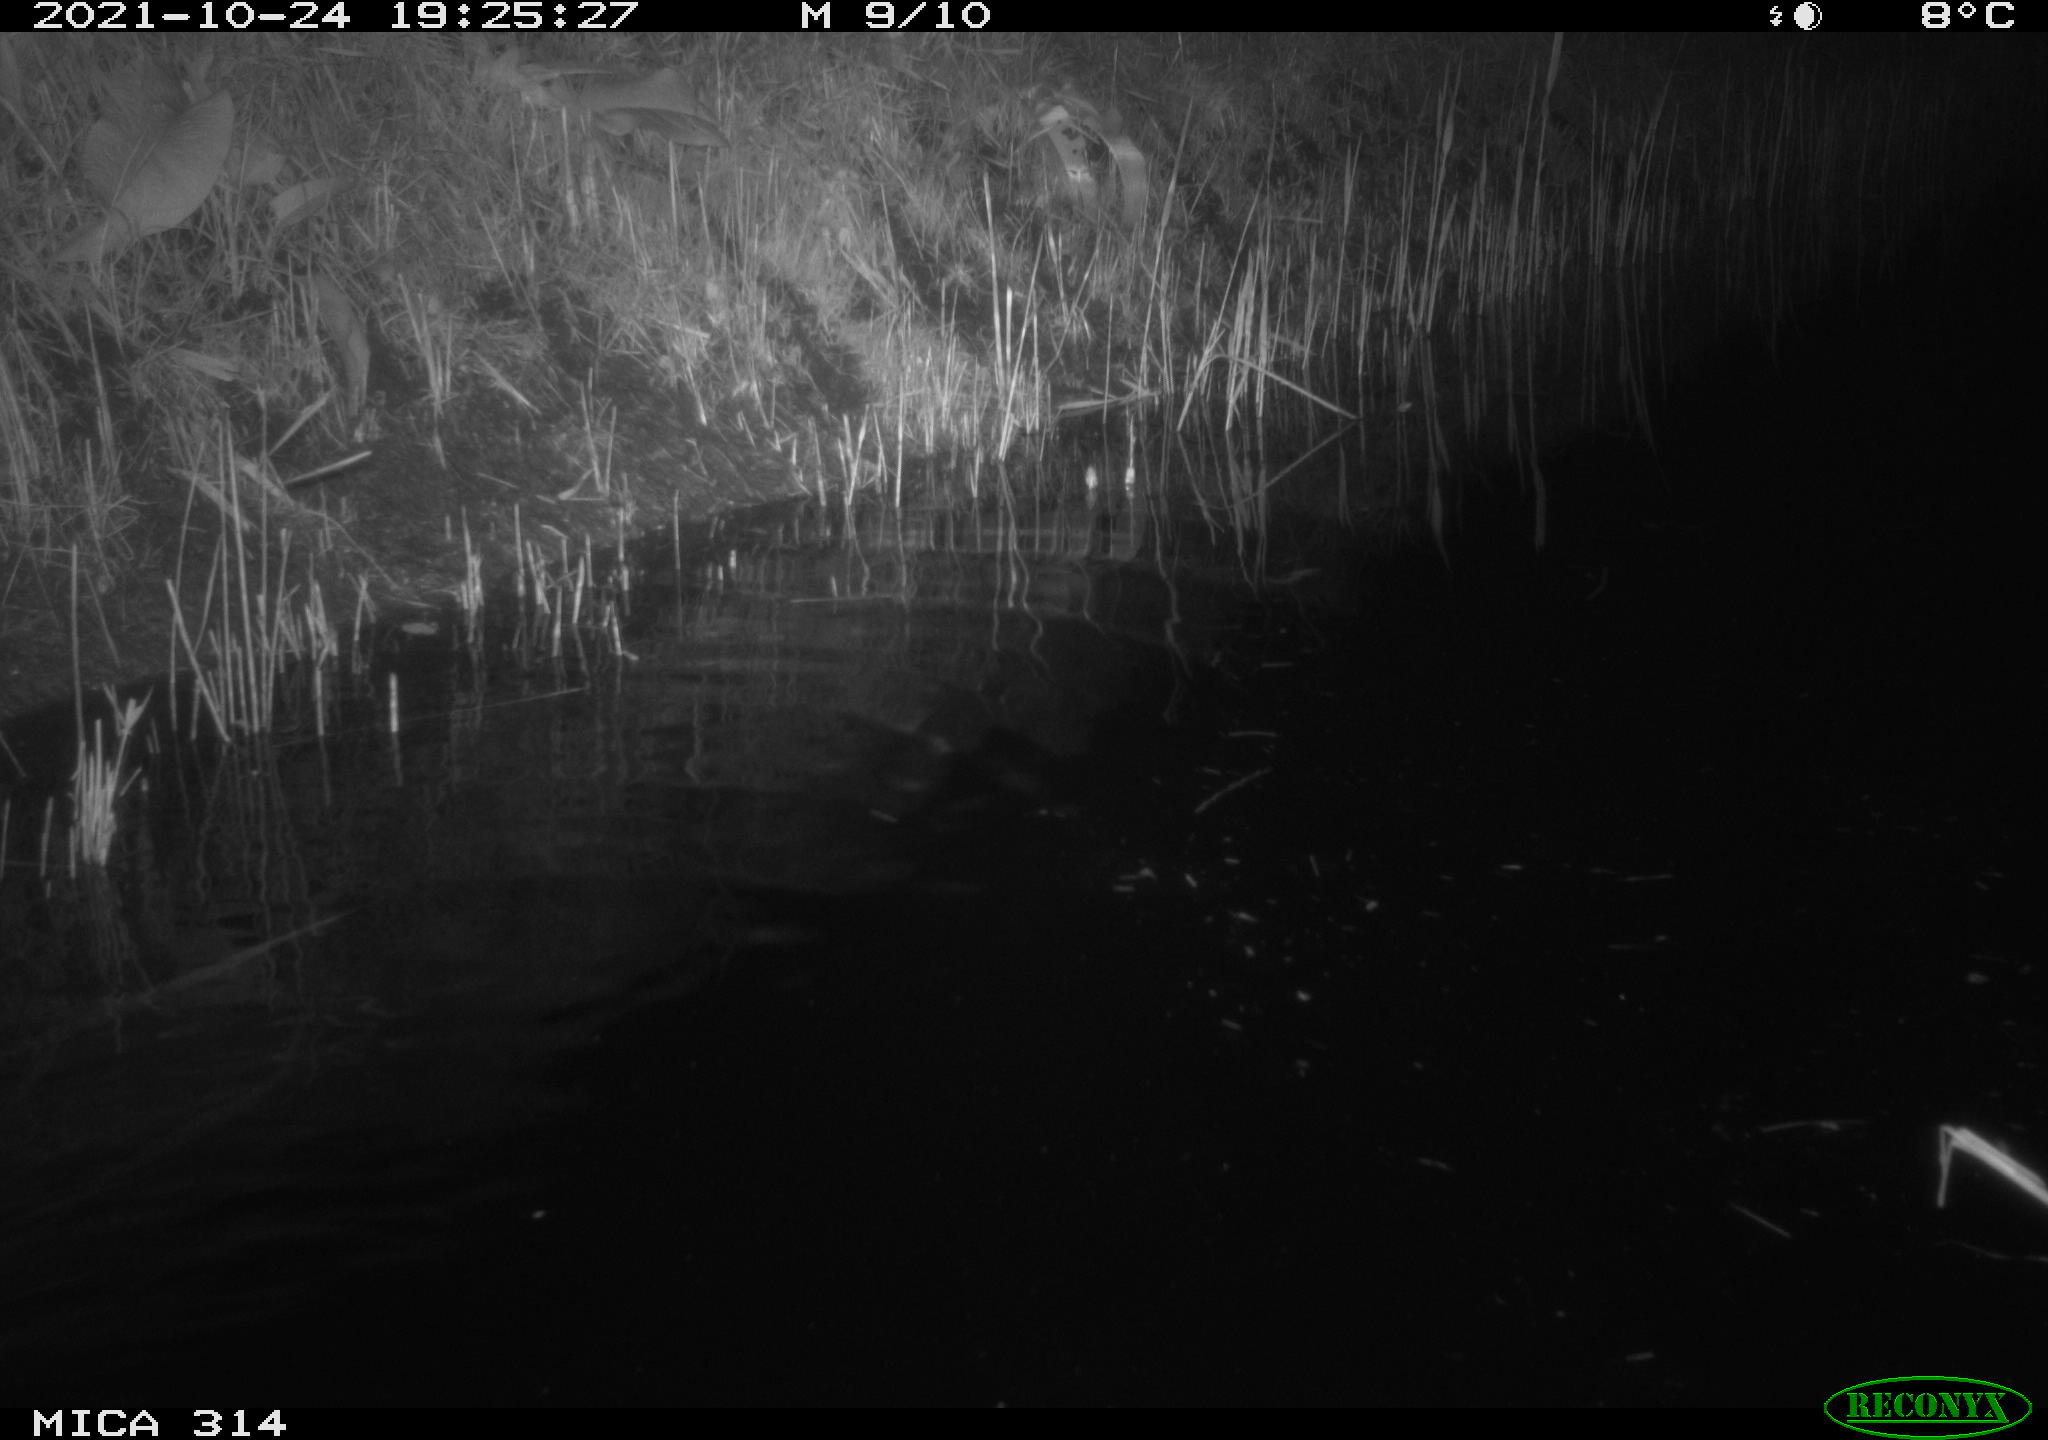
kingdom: Animalia
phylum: Chordata
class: Mammalia
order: Rodentia
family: Muridae
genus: Rattus
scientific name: Rattus norvegicus
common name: Brown rat
